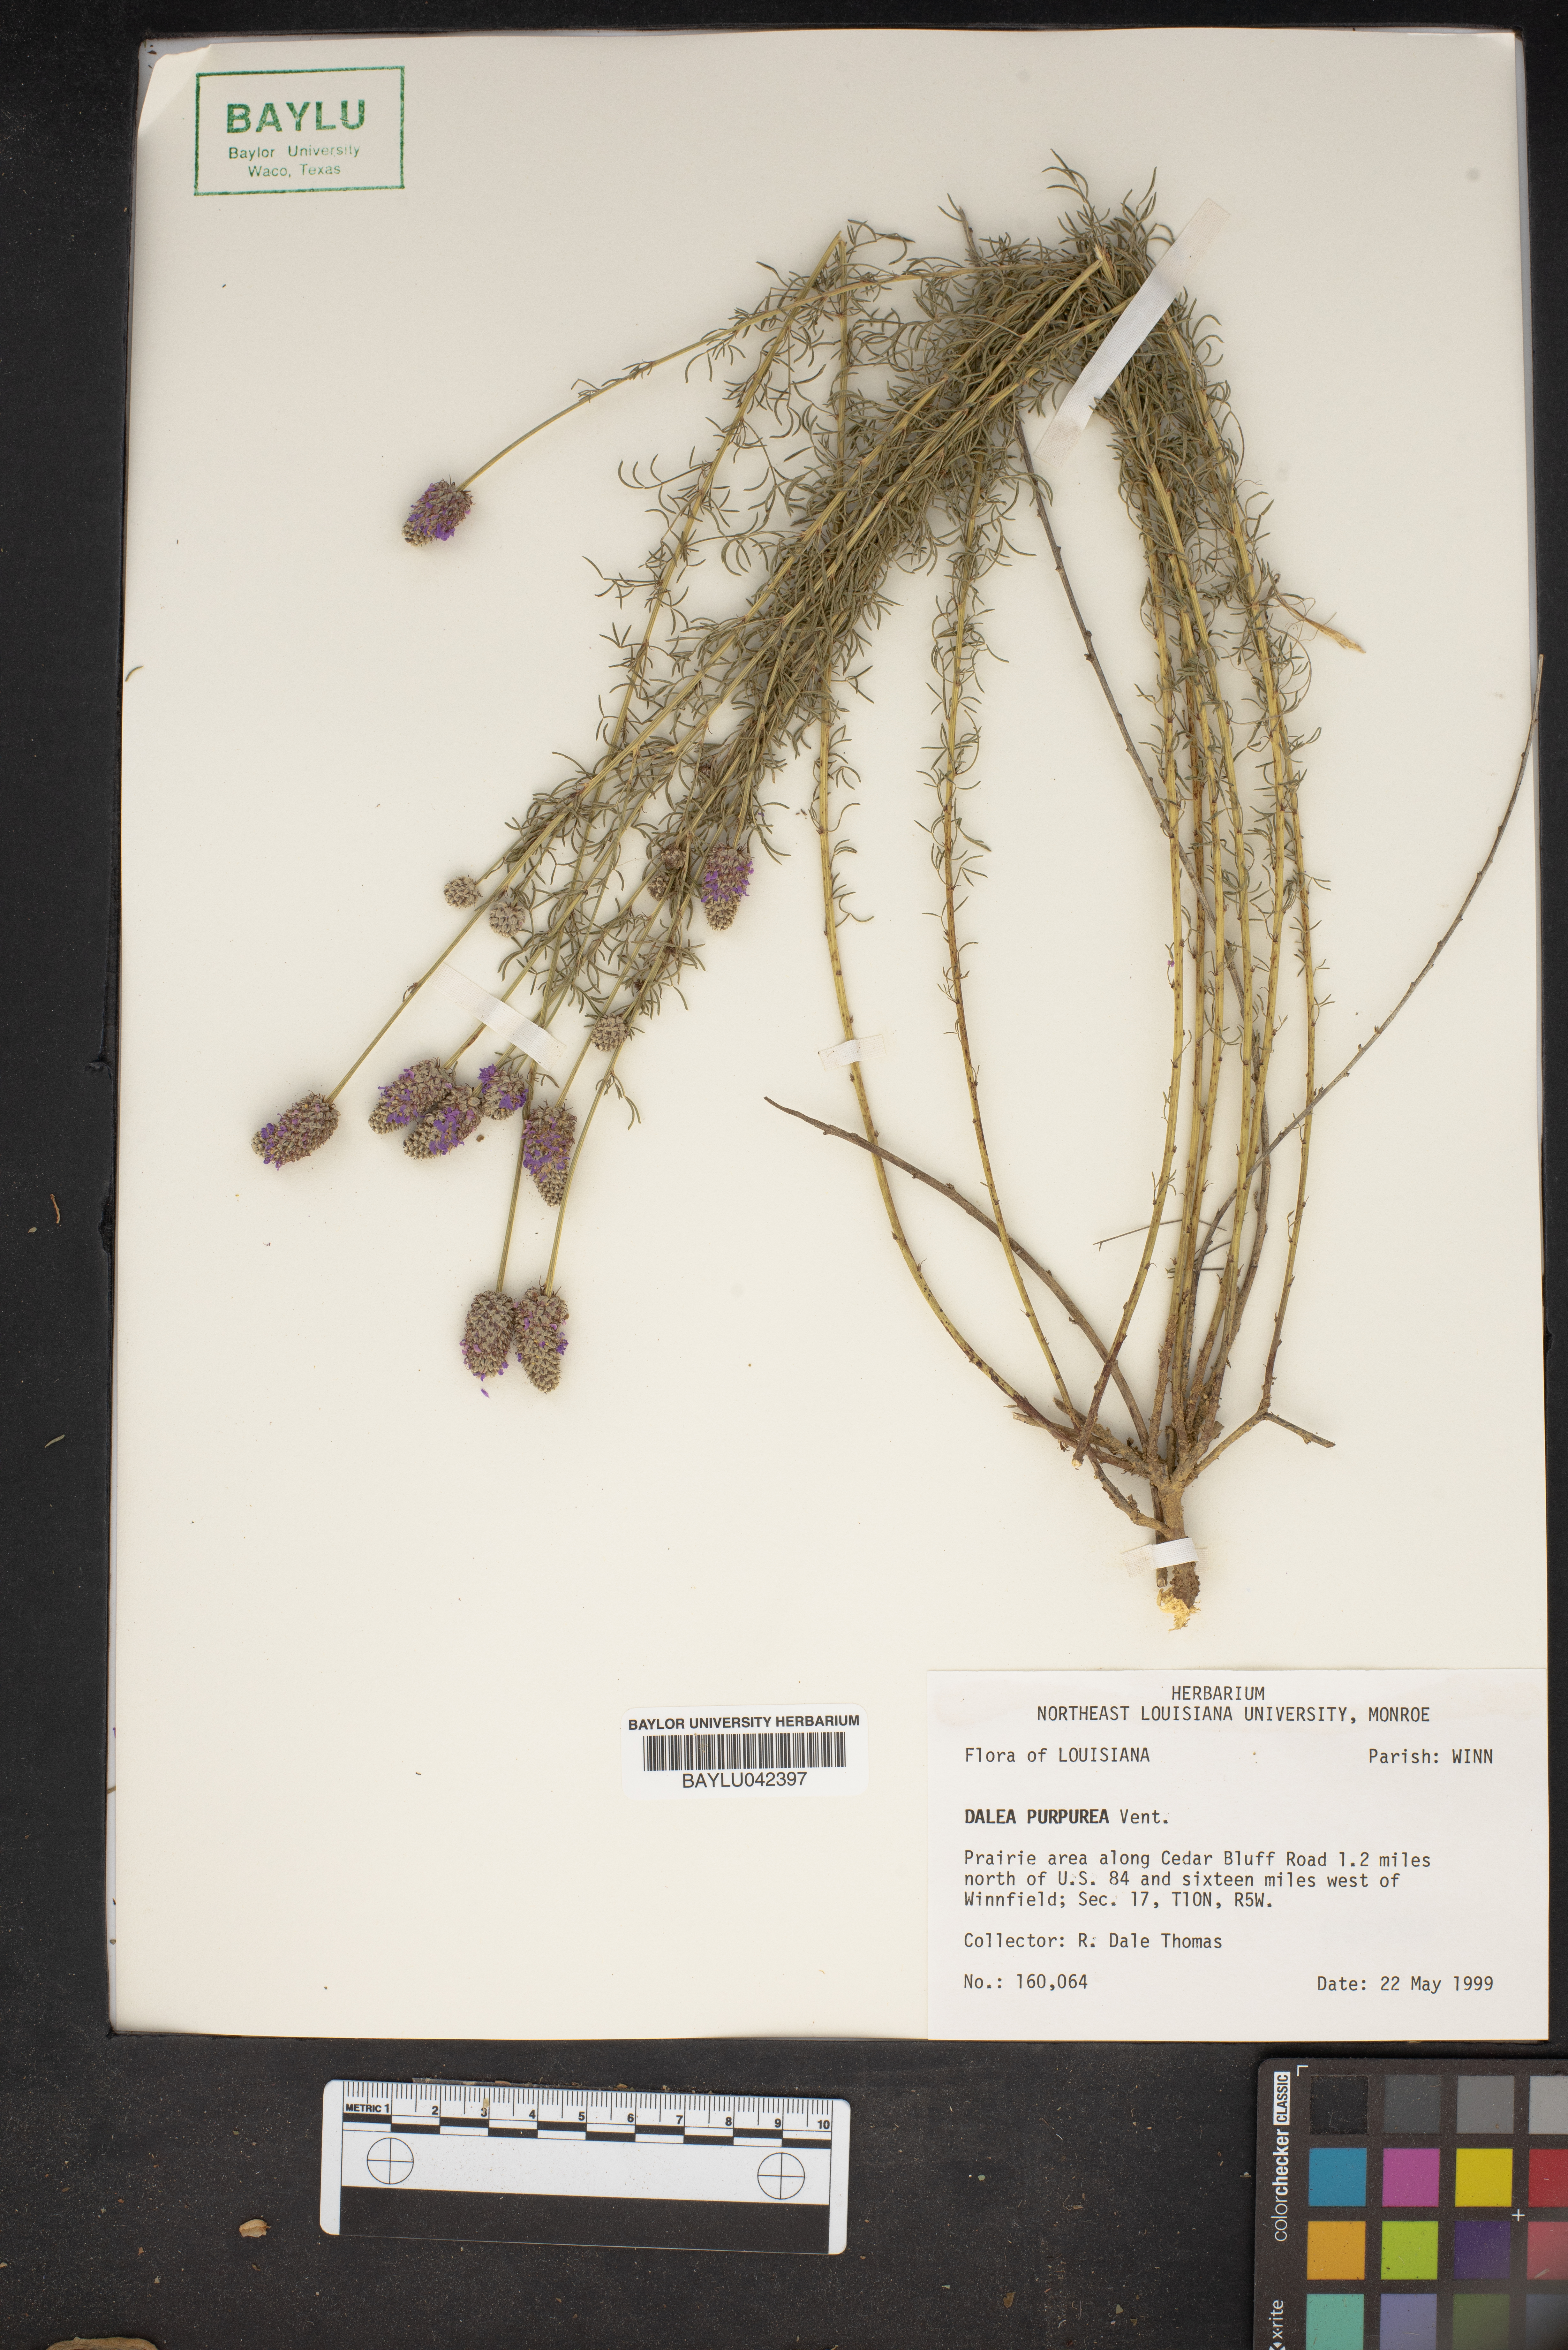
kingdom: Plantae
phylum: Tracheophyta
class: Magnoliopsida
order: Fabales
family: Fabaceae
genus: Dalea
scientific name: Dalea purpurea
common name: Purple prairie-clover
